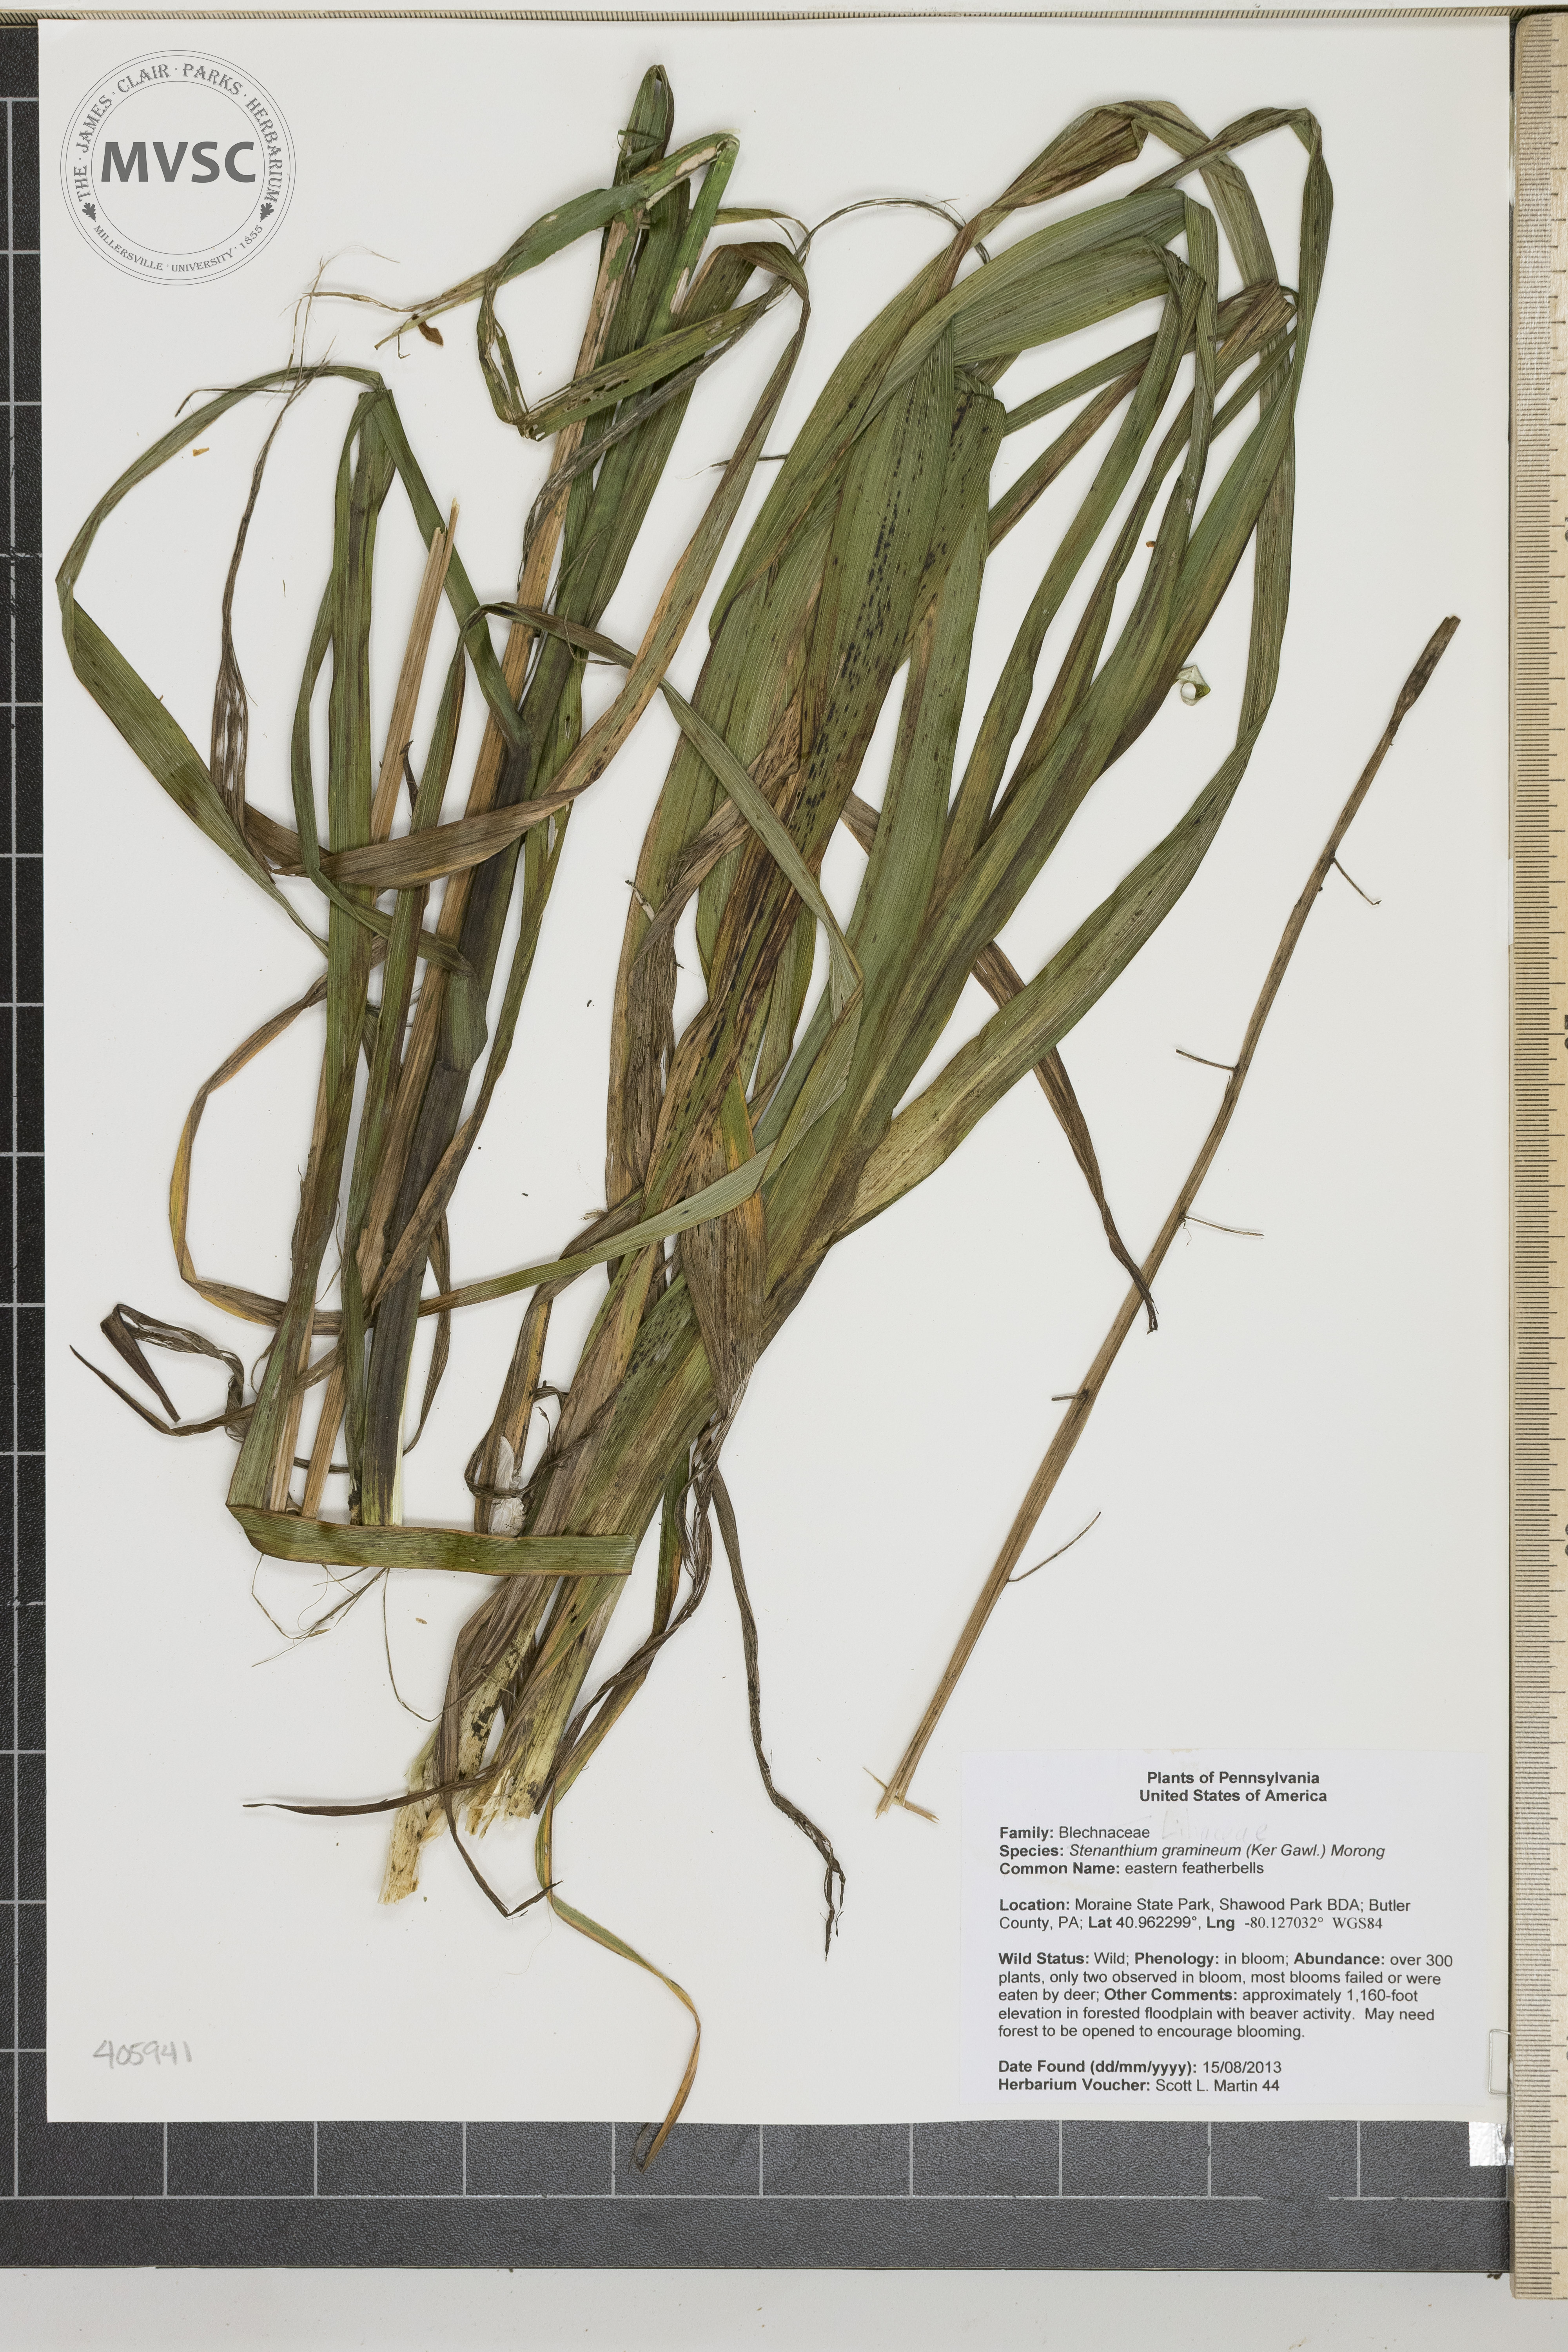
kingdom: Plantae
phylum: Tracheophyta
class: Liliopsida
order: Liliales
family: Melanthiaceae
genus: Stenanthium
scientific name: Stenanthium gramineum
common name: eastern featherbells
